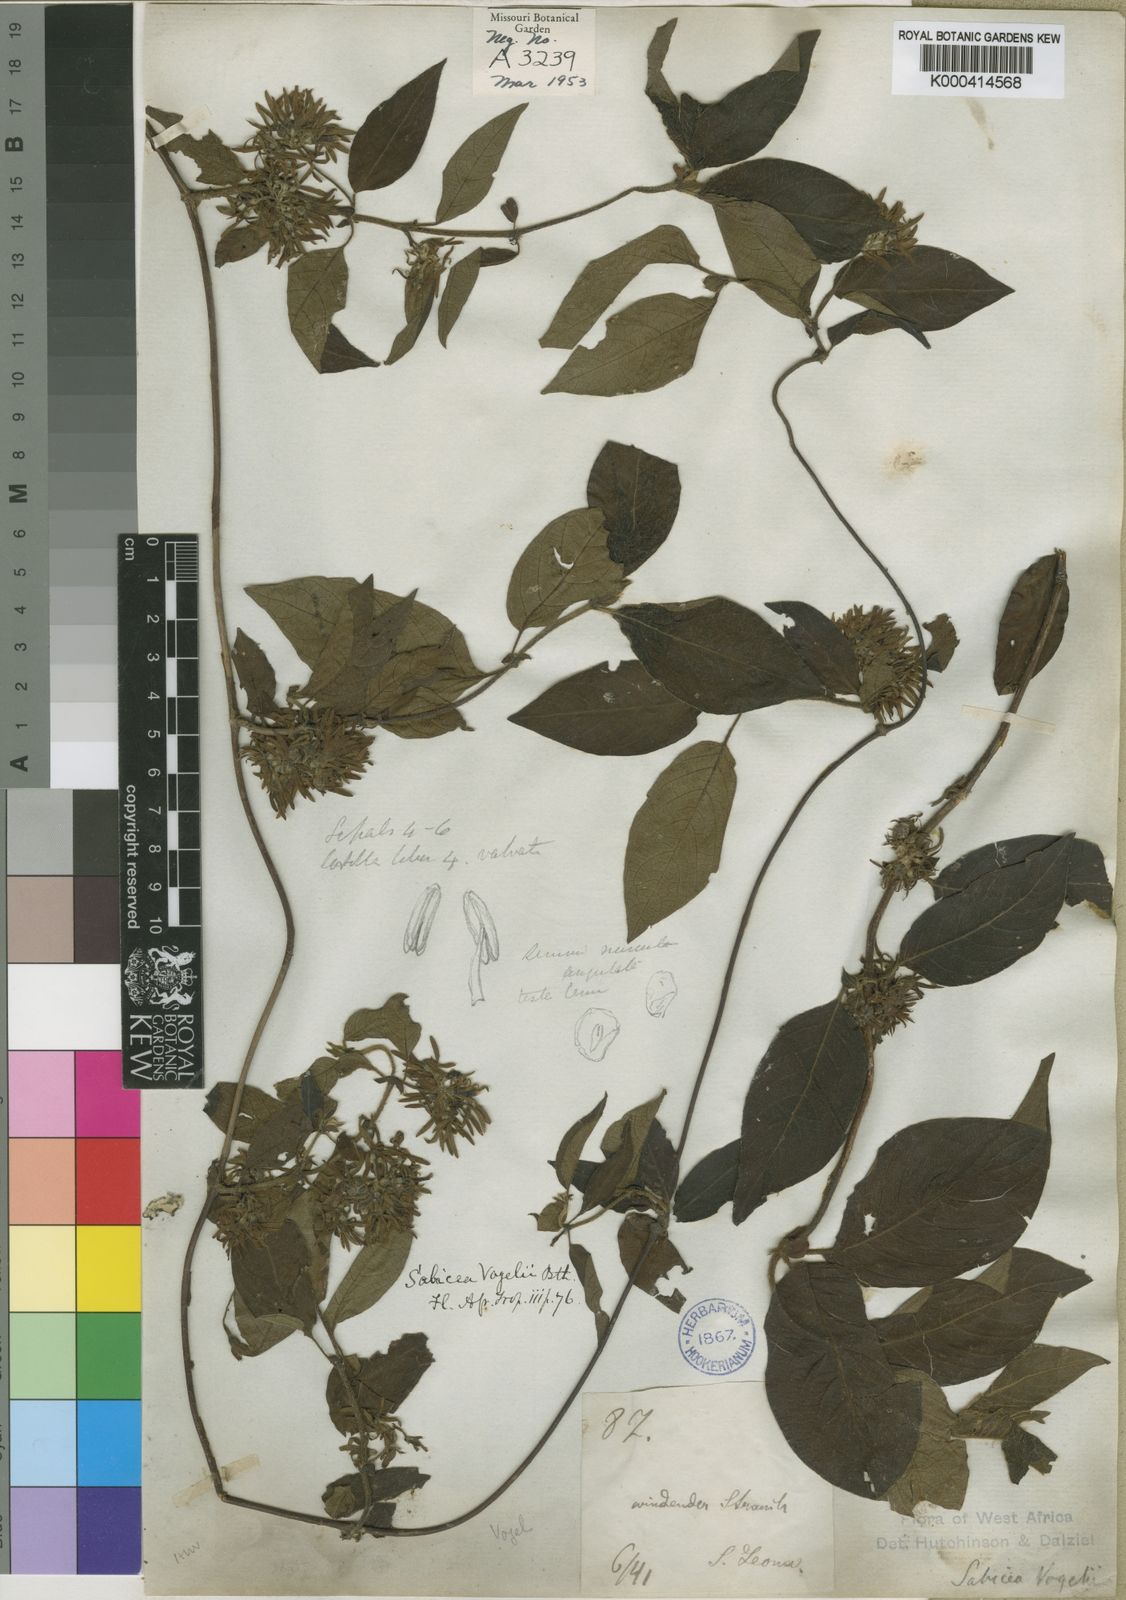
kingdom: Plantae
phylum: Tracheophyta
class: Magnoliopsida
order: Gentianales
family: Rubiaceae
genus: Sabicea
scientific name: Sabicea ferruginea
